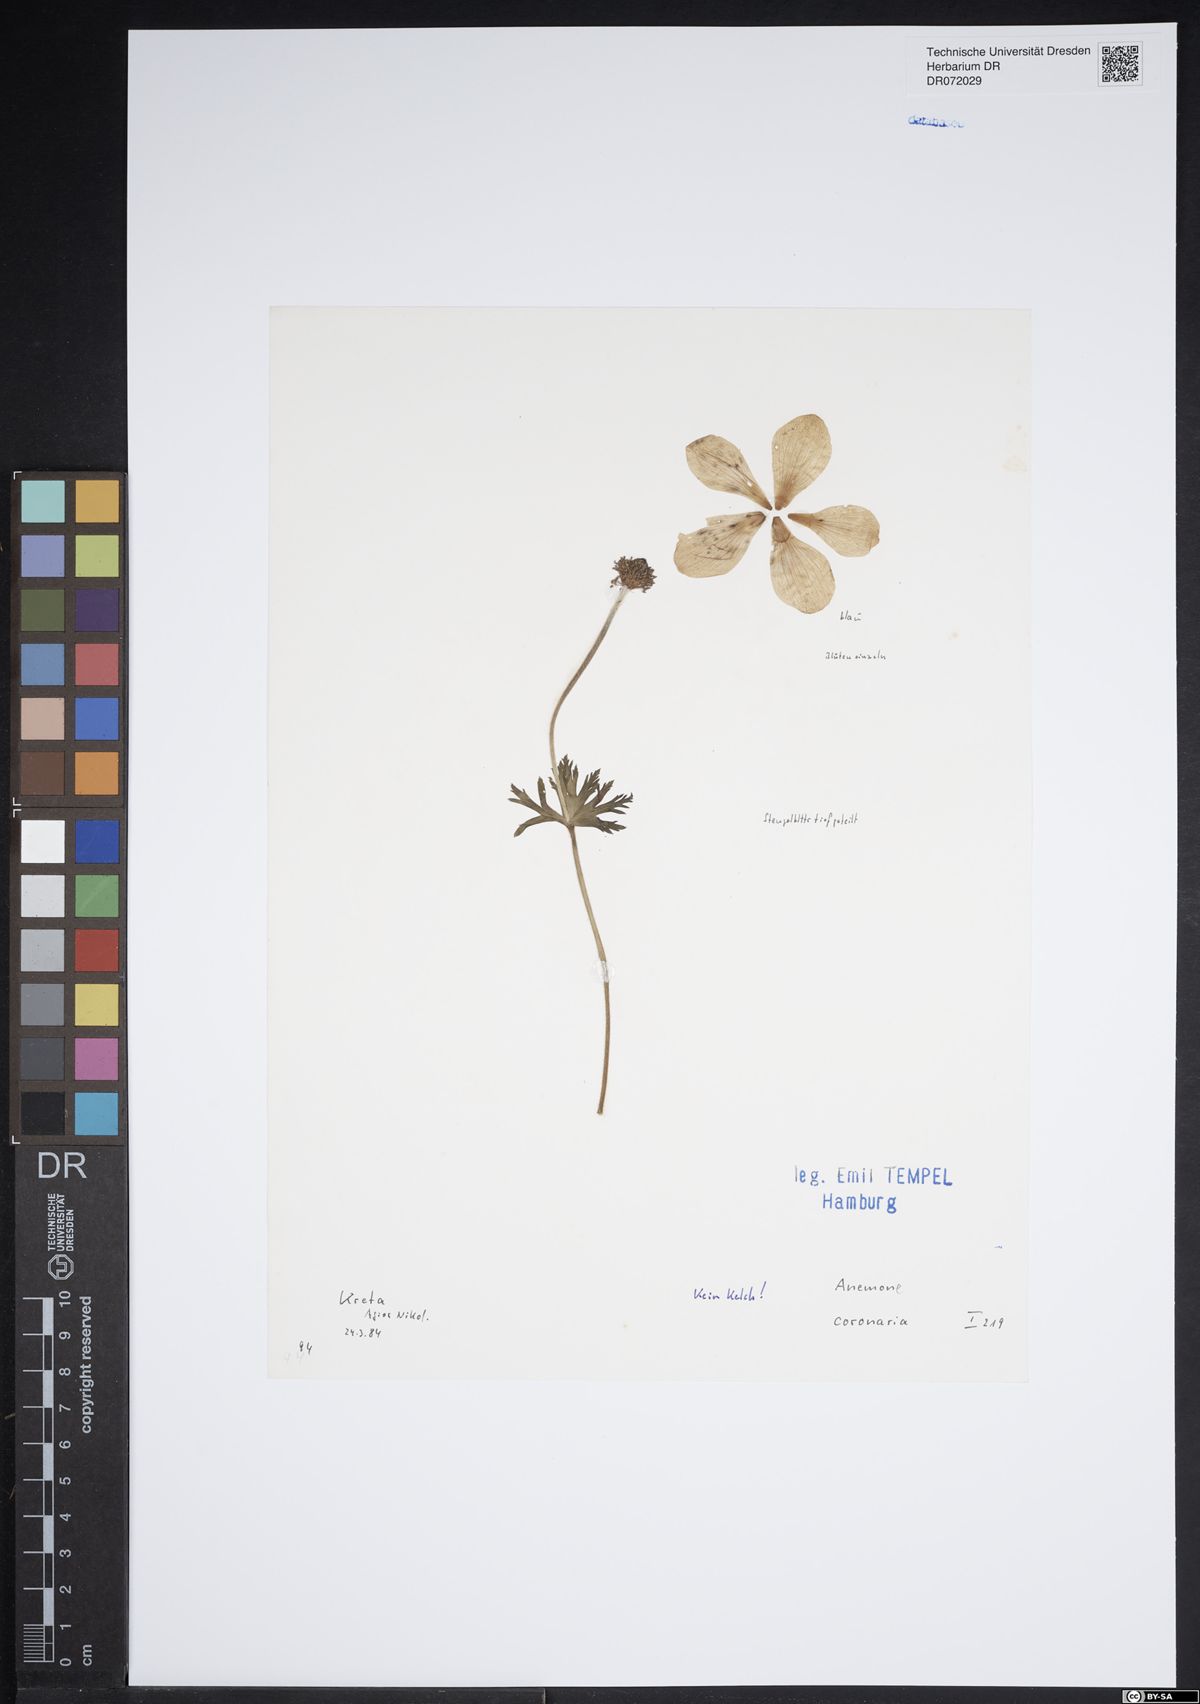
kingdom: Plantae
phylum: Tracheophyta
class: Magnoliopsida
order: Ranunculales
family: Ranunculaceae
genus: Anemone
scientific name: Anemone coronaria
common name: Poppy anemone
